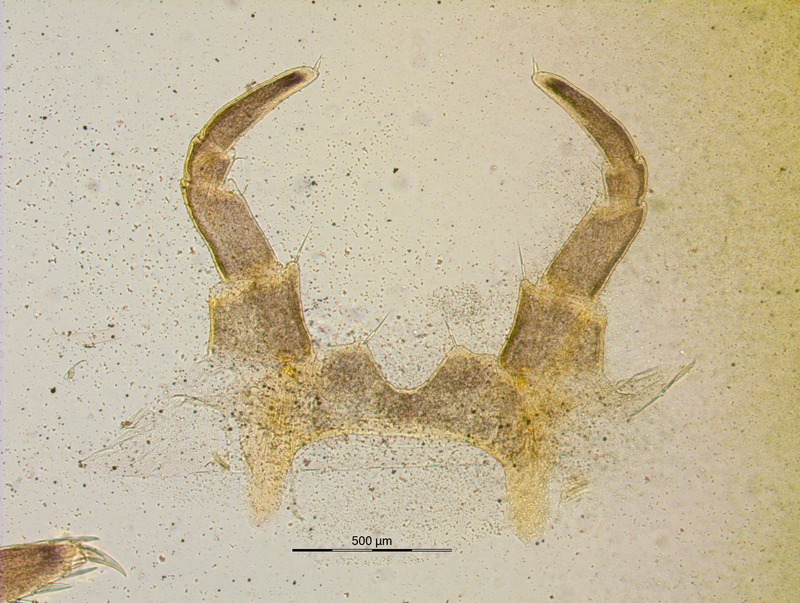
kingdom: Animalia
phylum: Arthropoda
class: Diplopoda
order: Glomerida
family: Glomeridae
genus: Glomeris
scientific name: Glomeris klugii
